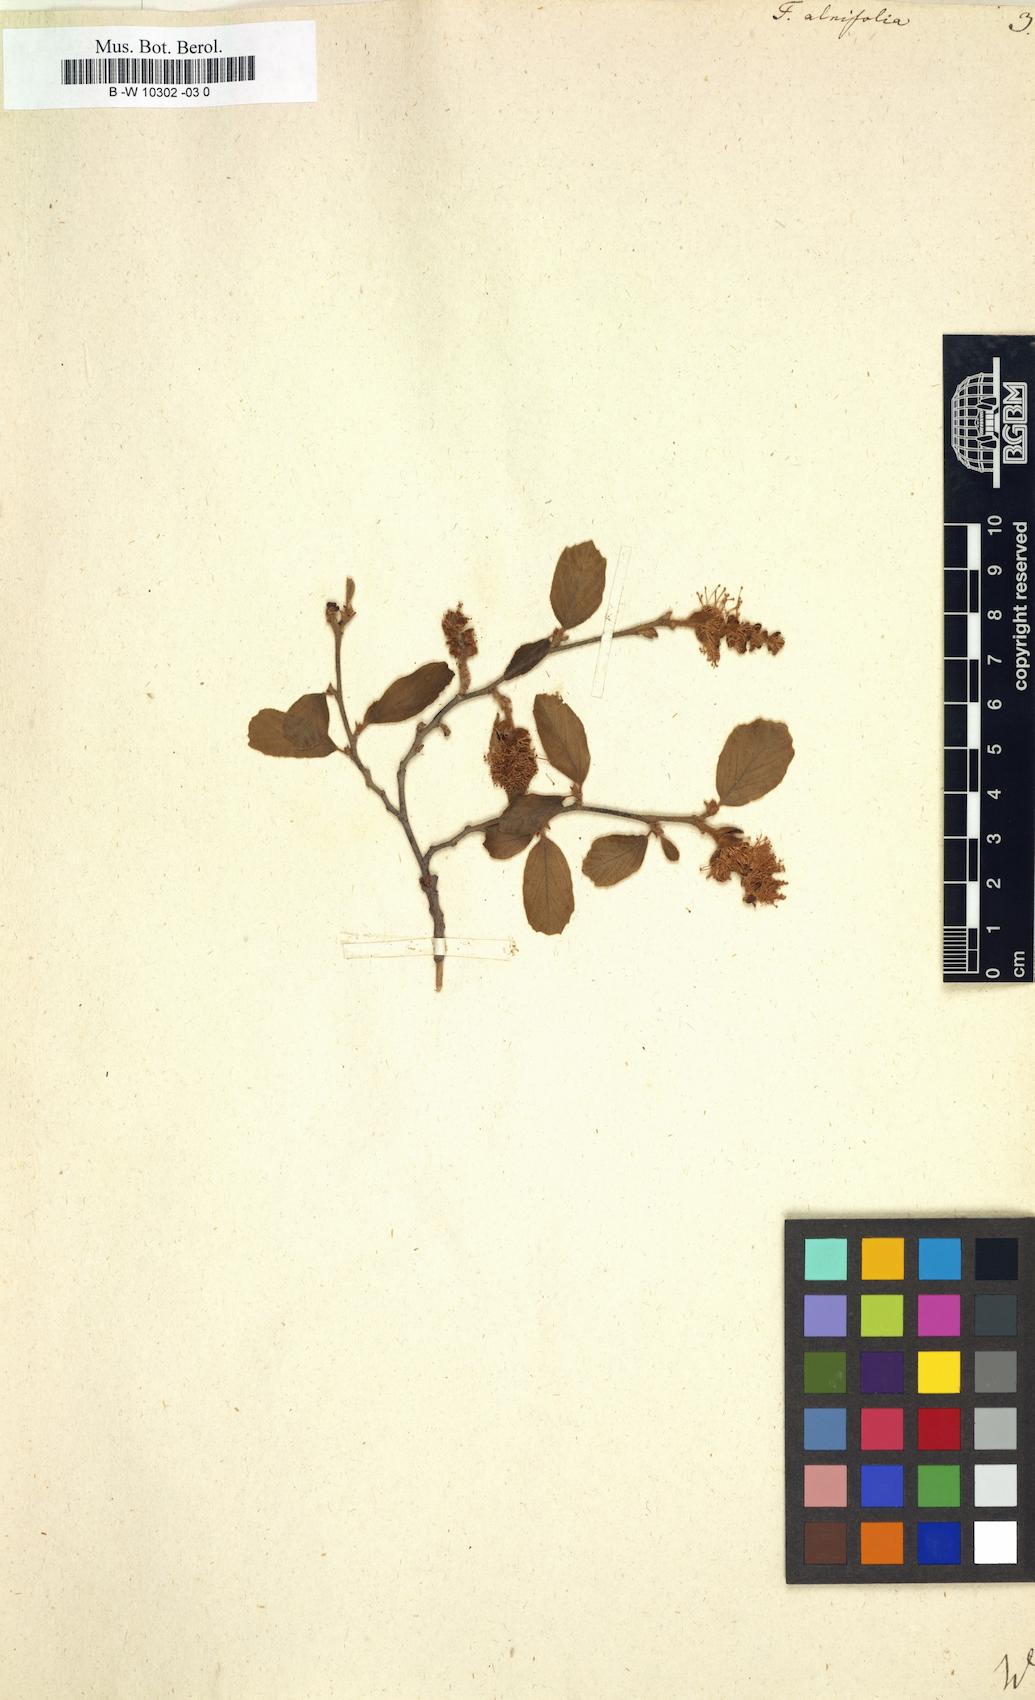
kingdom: Plantae
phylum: Tracheophyta
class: Magnoliopsida
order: Saxifragales
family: Hamamelidaceae
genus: Fothergilla
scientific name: Fothergilla gardenii
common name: Dwarf witch-alder
